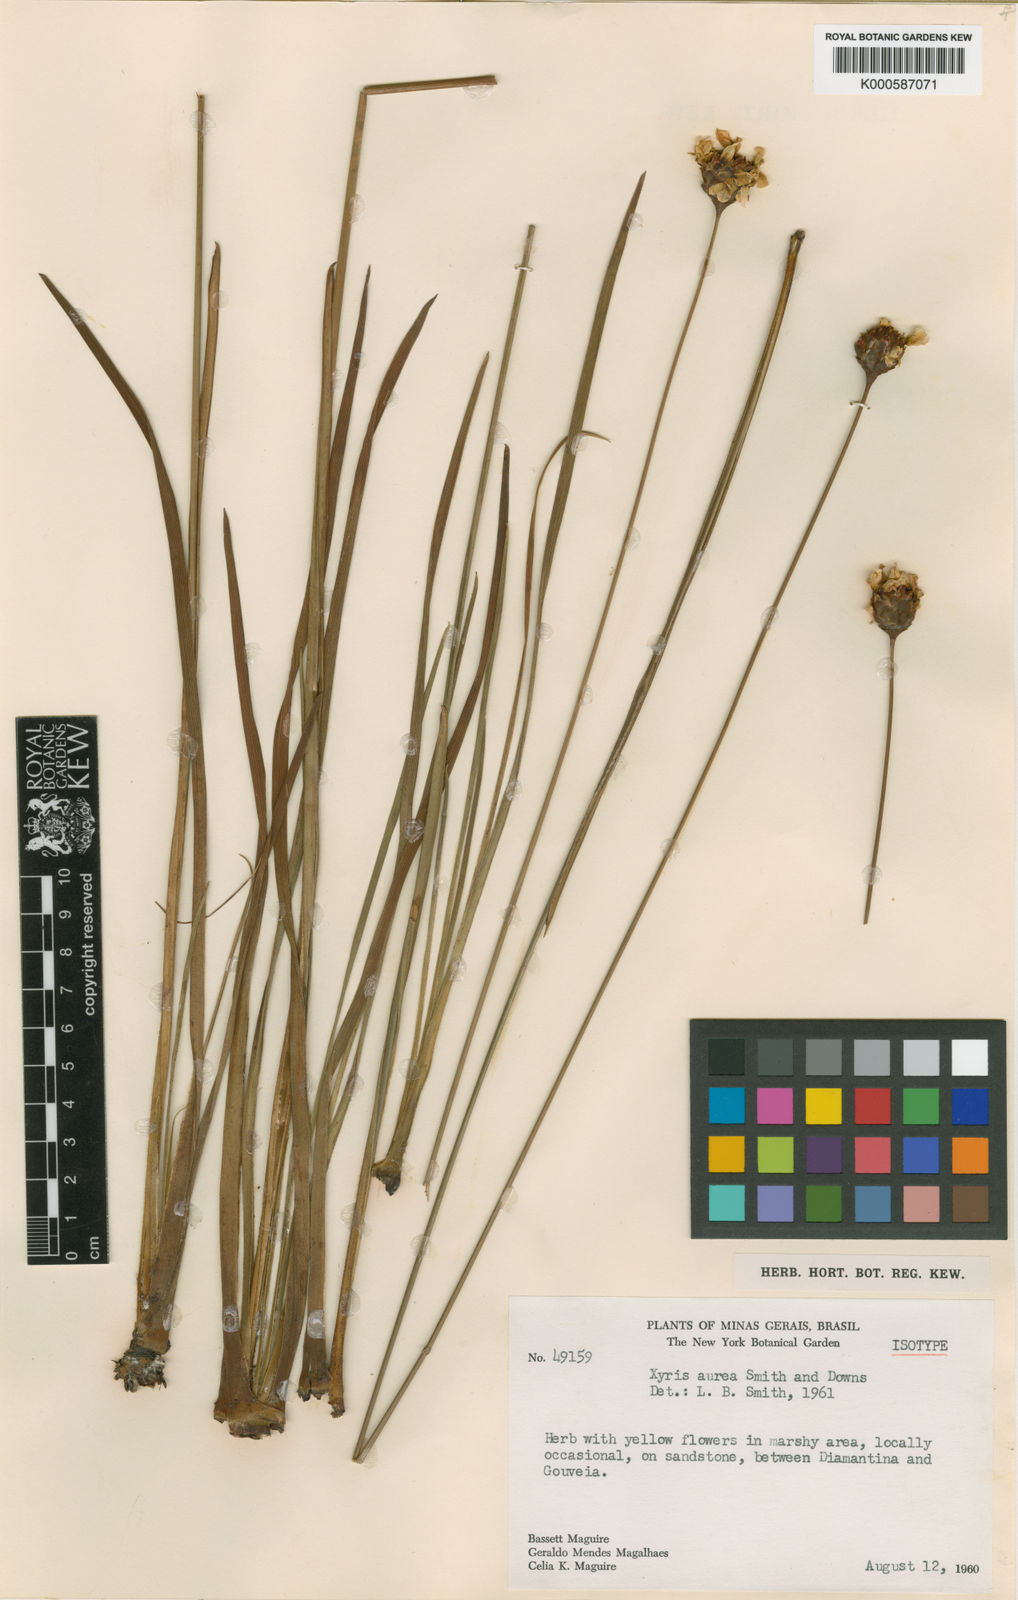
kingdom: Plantae
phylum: Tracheophyta
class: Liliopsida
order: Poales
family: Xyridaceae
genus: Xyris
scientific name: Xyris aurea
